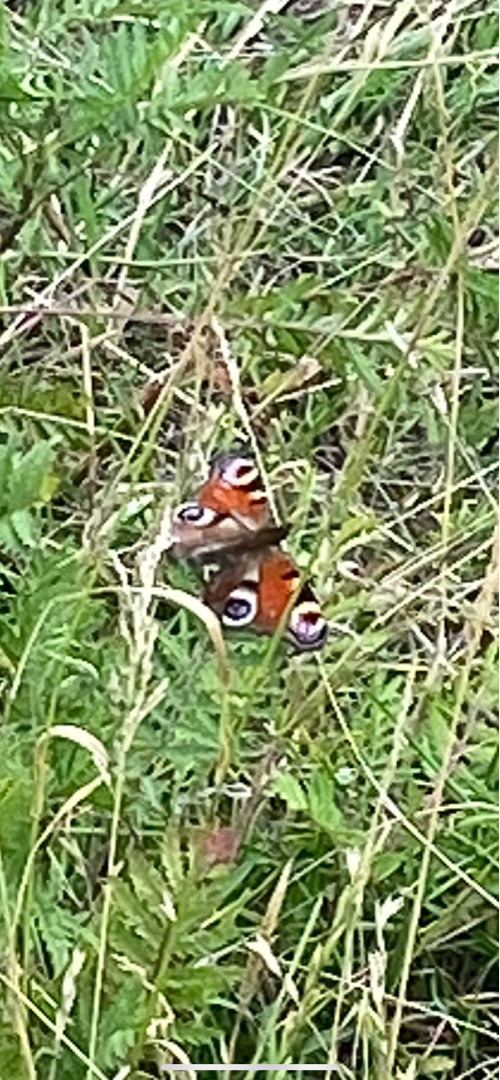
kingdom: Animalia
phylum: Arthropoda
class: Insecta
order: Lepidoptera
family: Nymphalidae
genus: Aglais
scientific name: Aglais io
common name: Dagpåfugleøje
